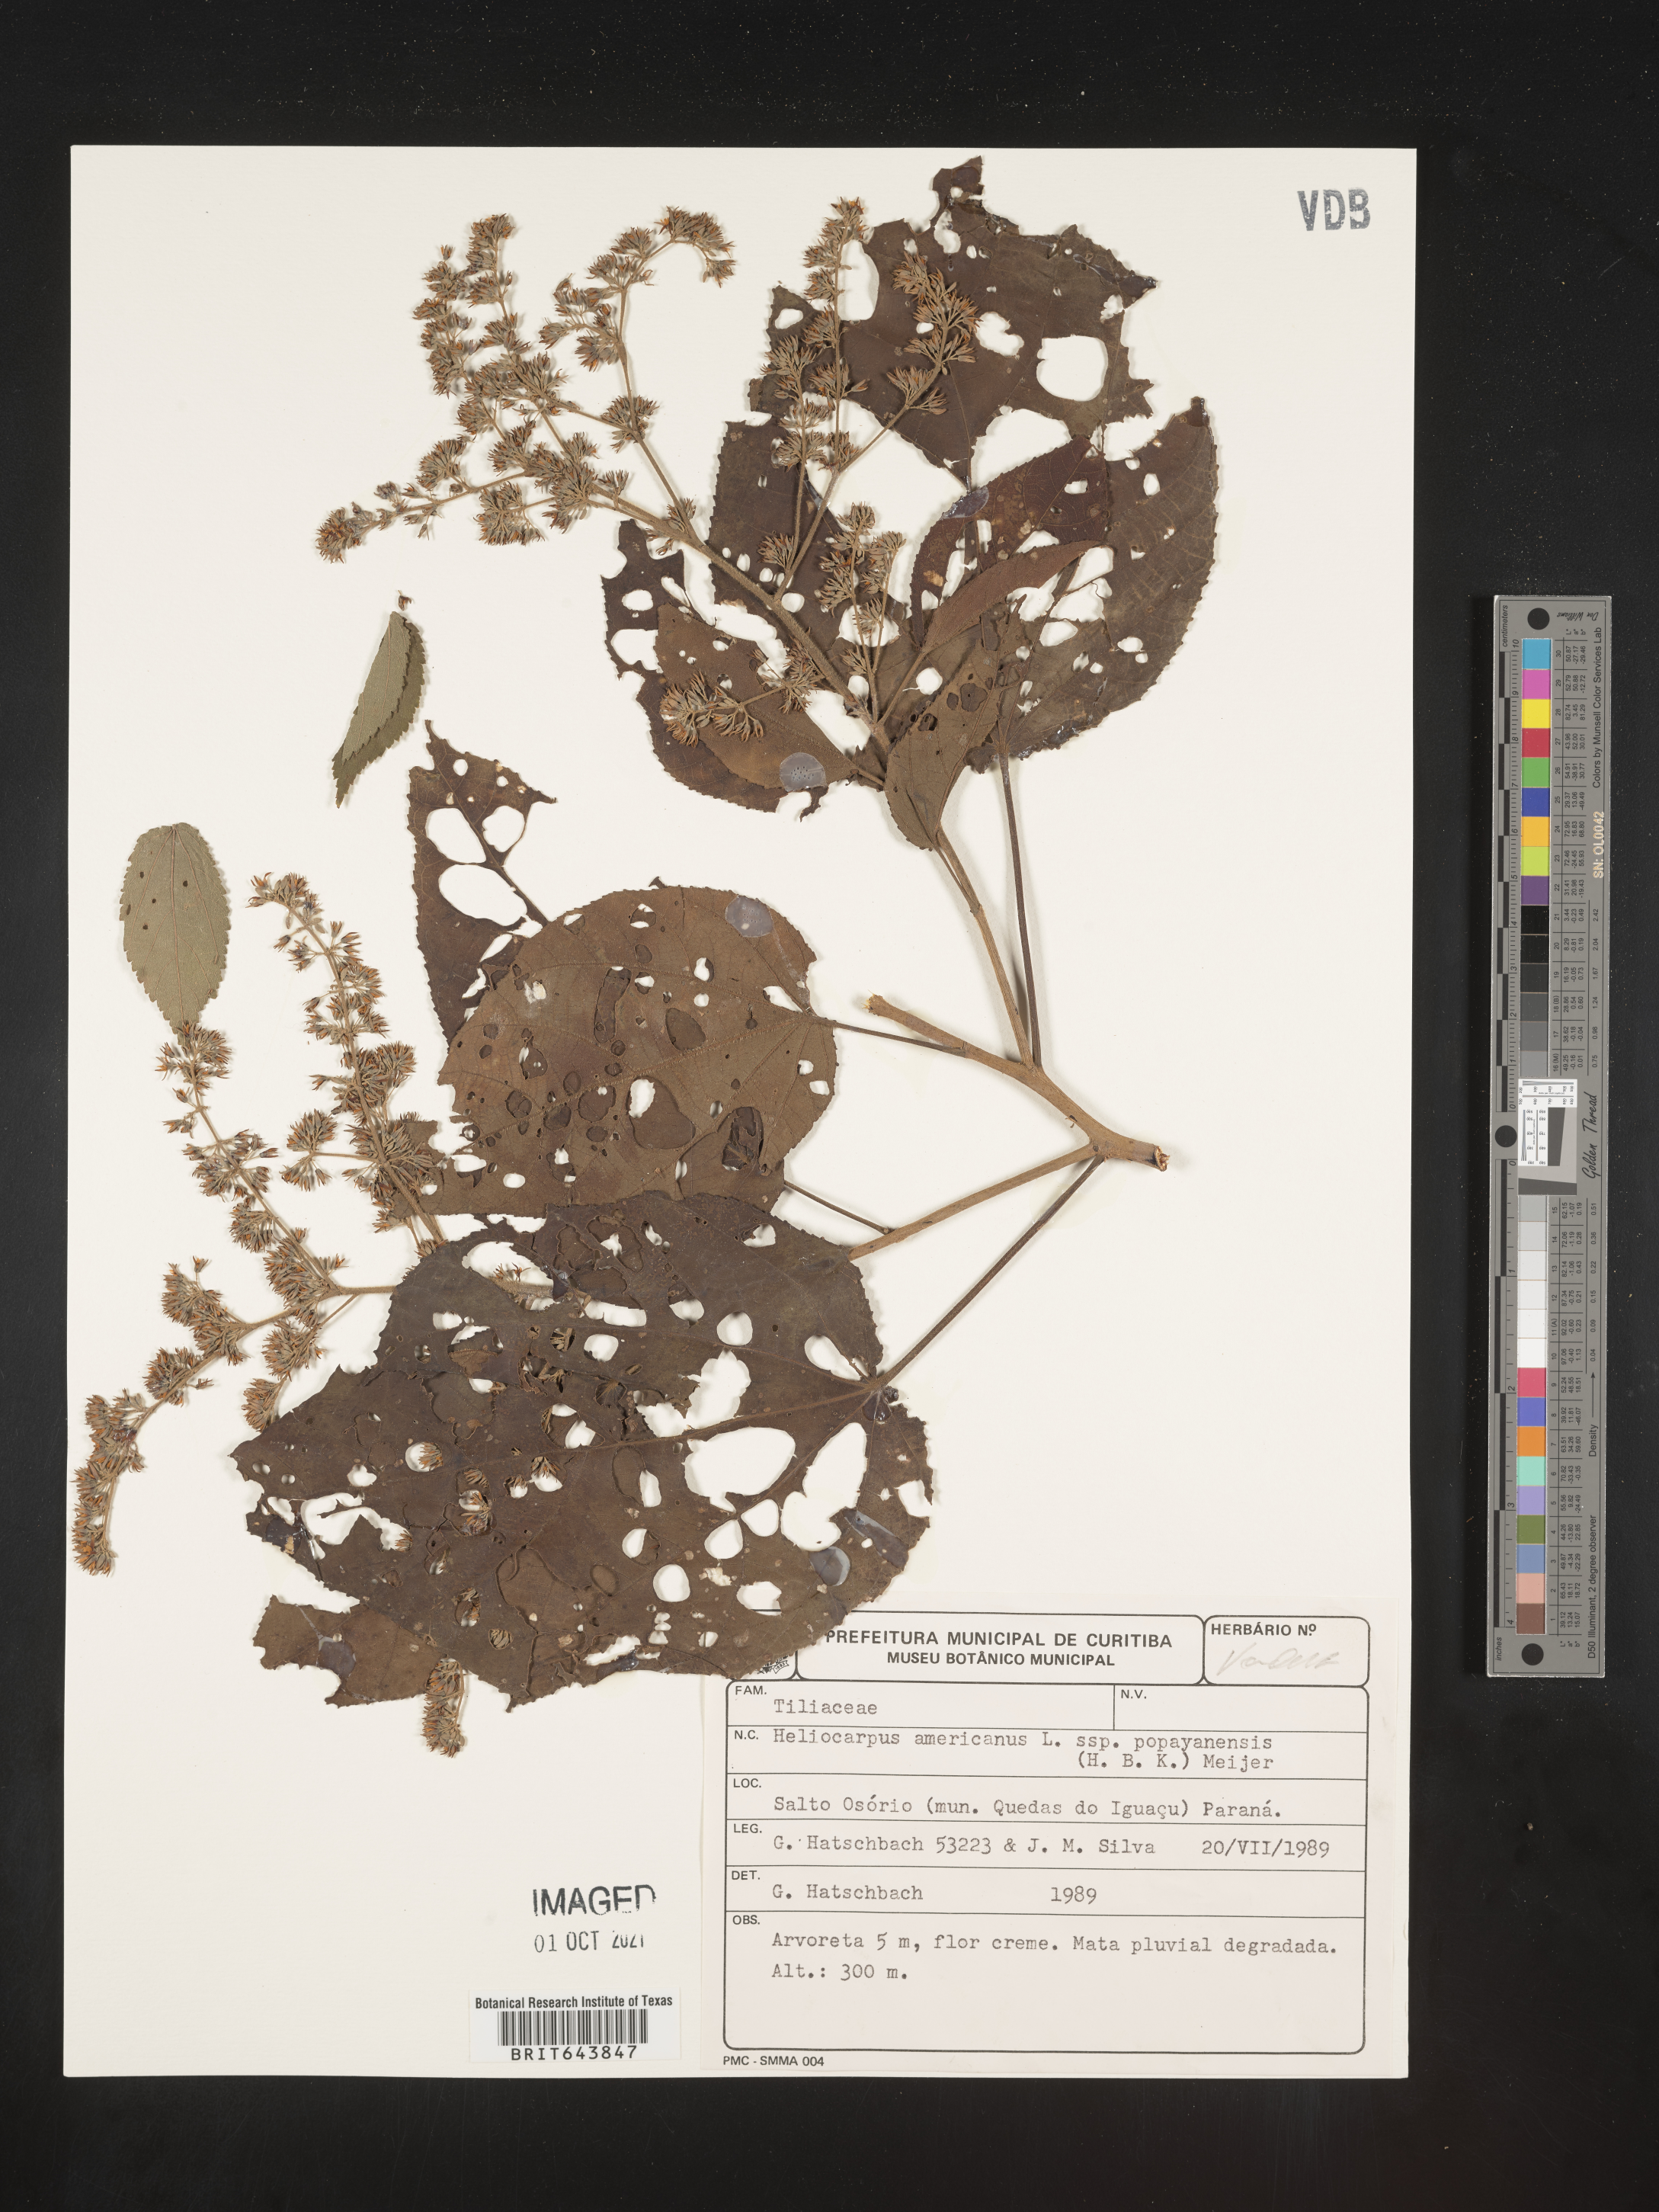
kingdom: Plantae
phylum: Tracheophyta
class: Magnoliopsida
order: Malvales
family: Malvaceae
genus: Heliocarpus
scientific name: Heliocarpus
